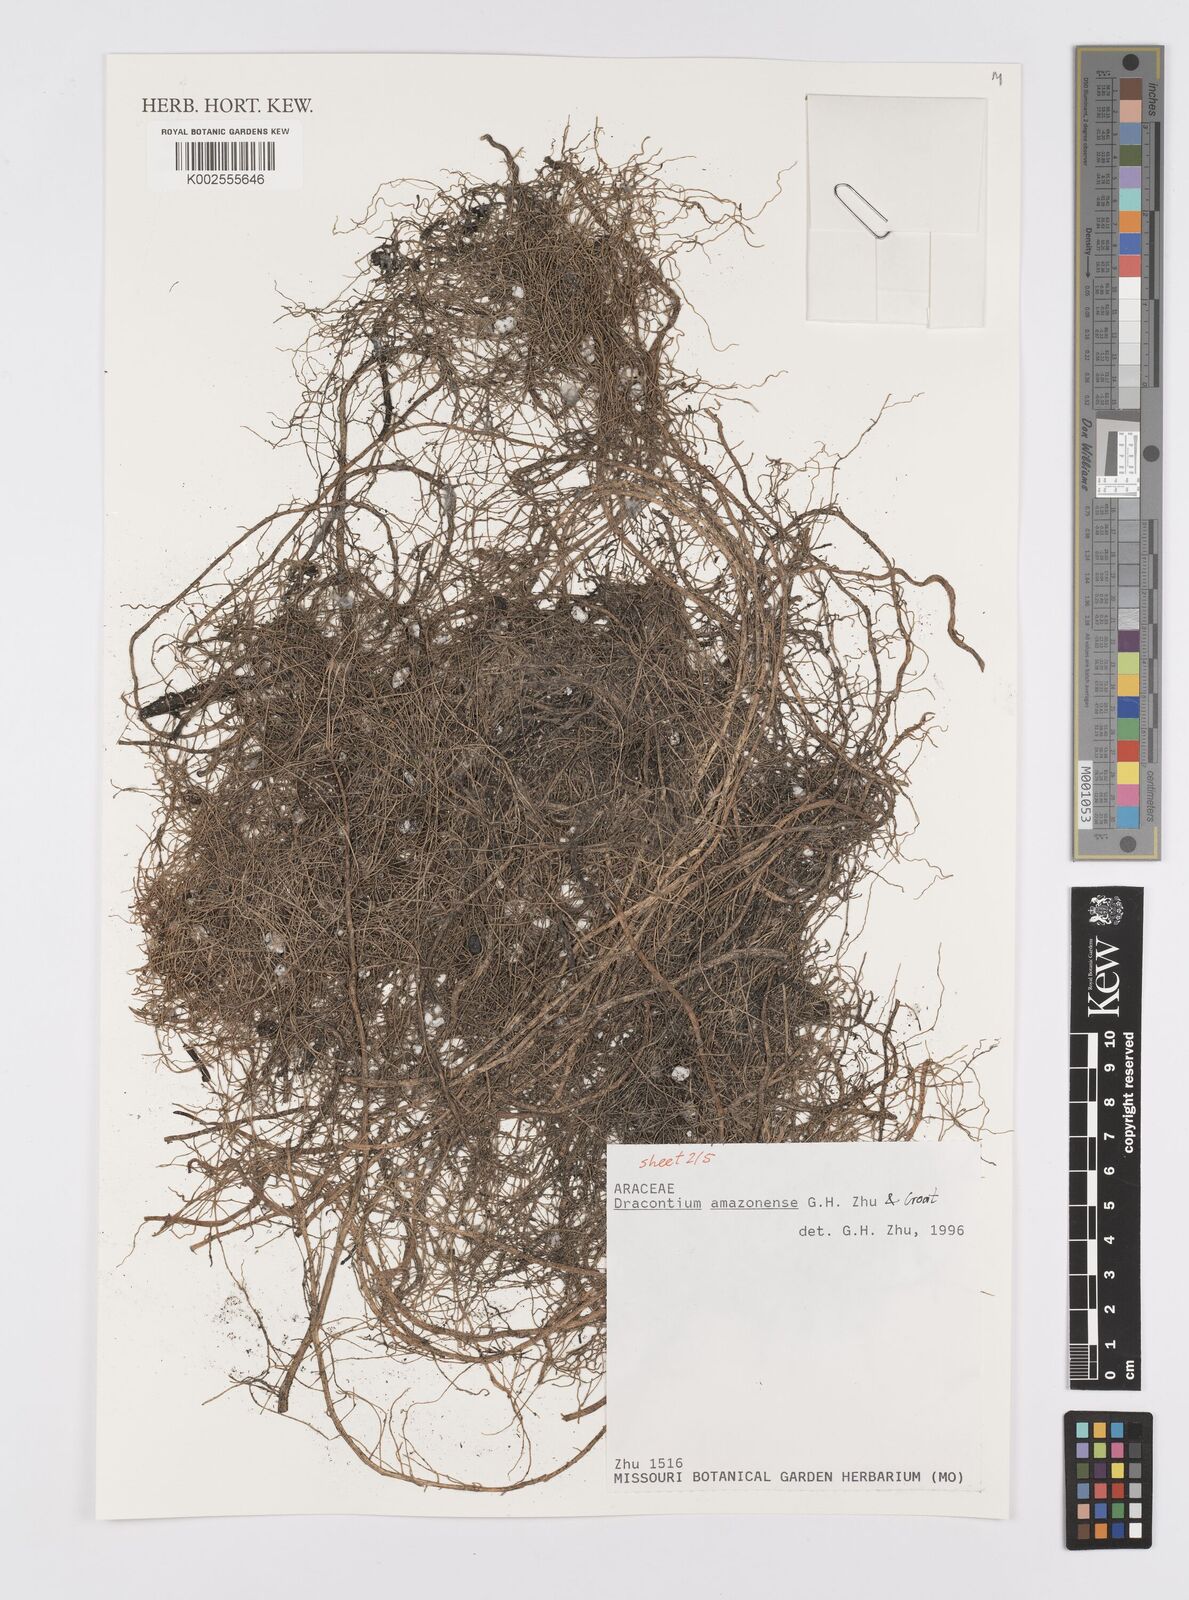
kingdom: Plantae
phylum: Tracheophyta
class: Liliopsida
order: Alismatales
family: Araceae
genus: Dracontium
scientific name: Dracontium amazonense
